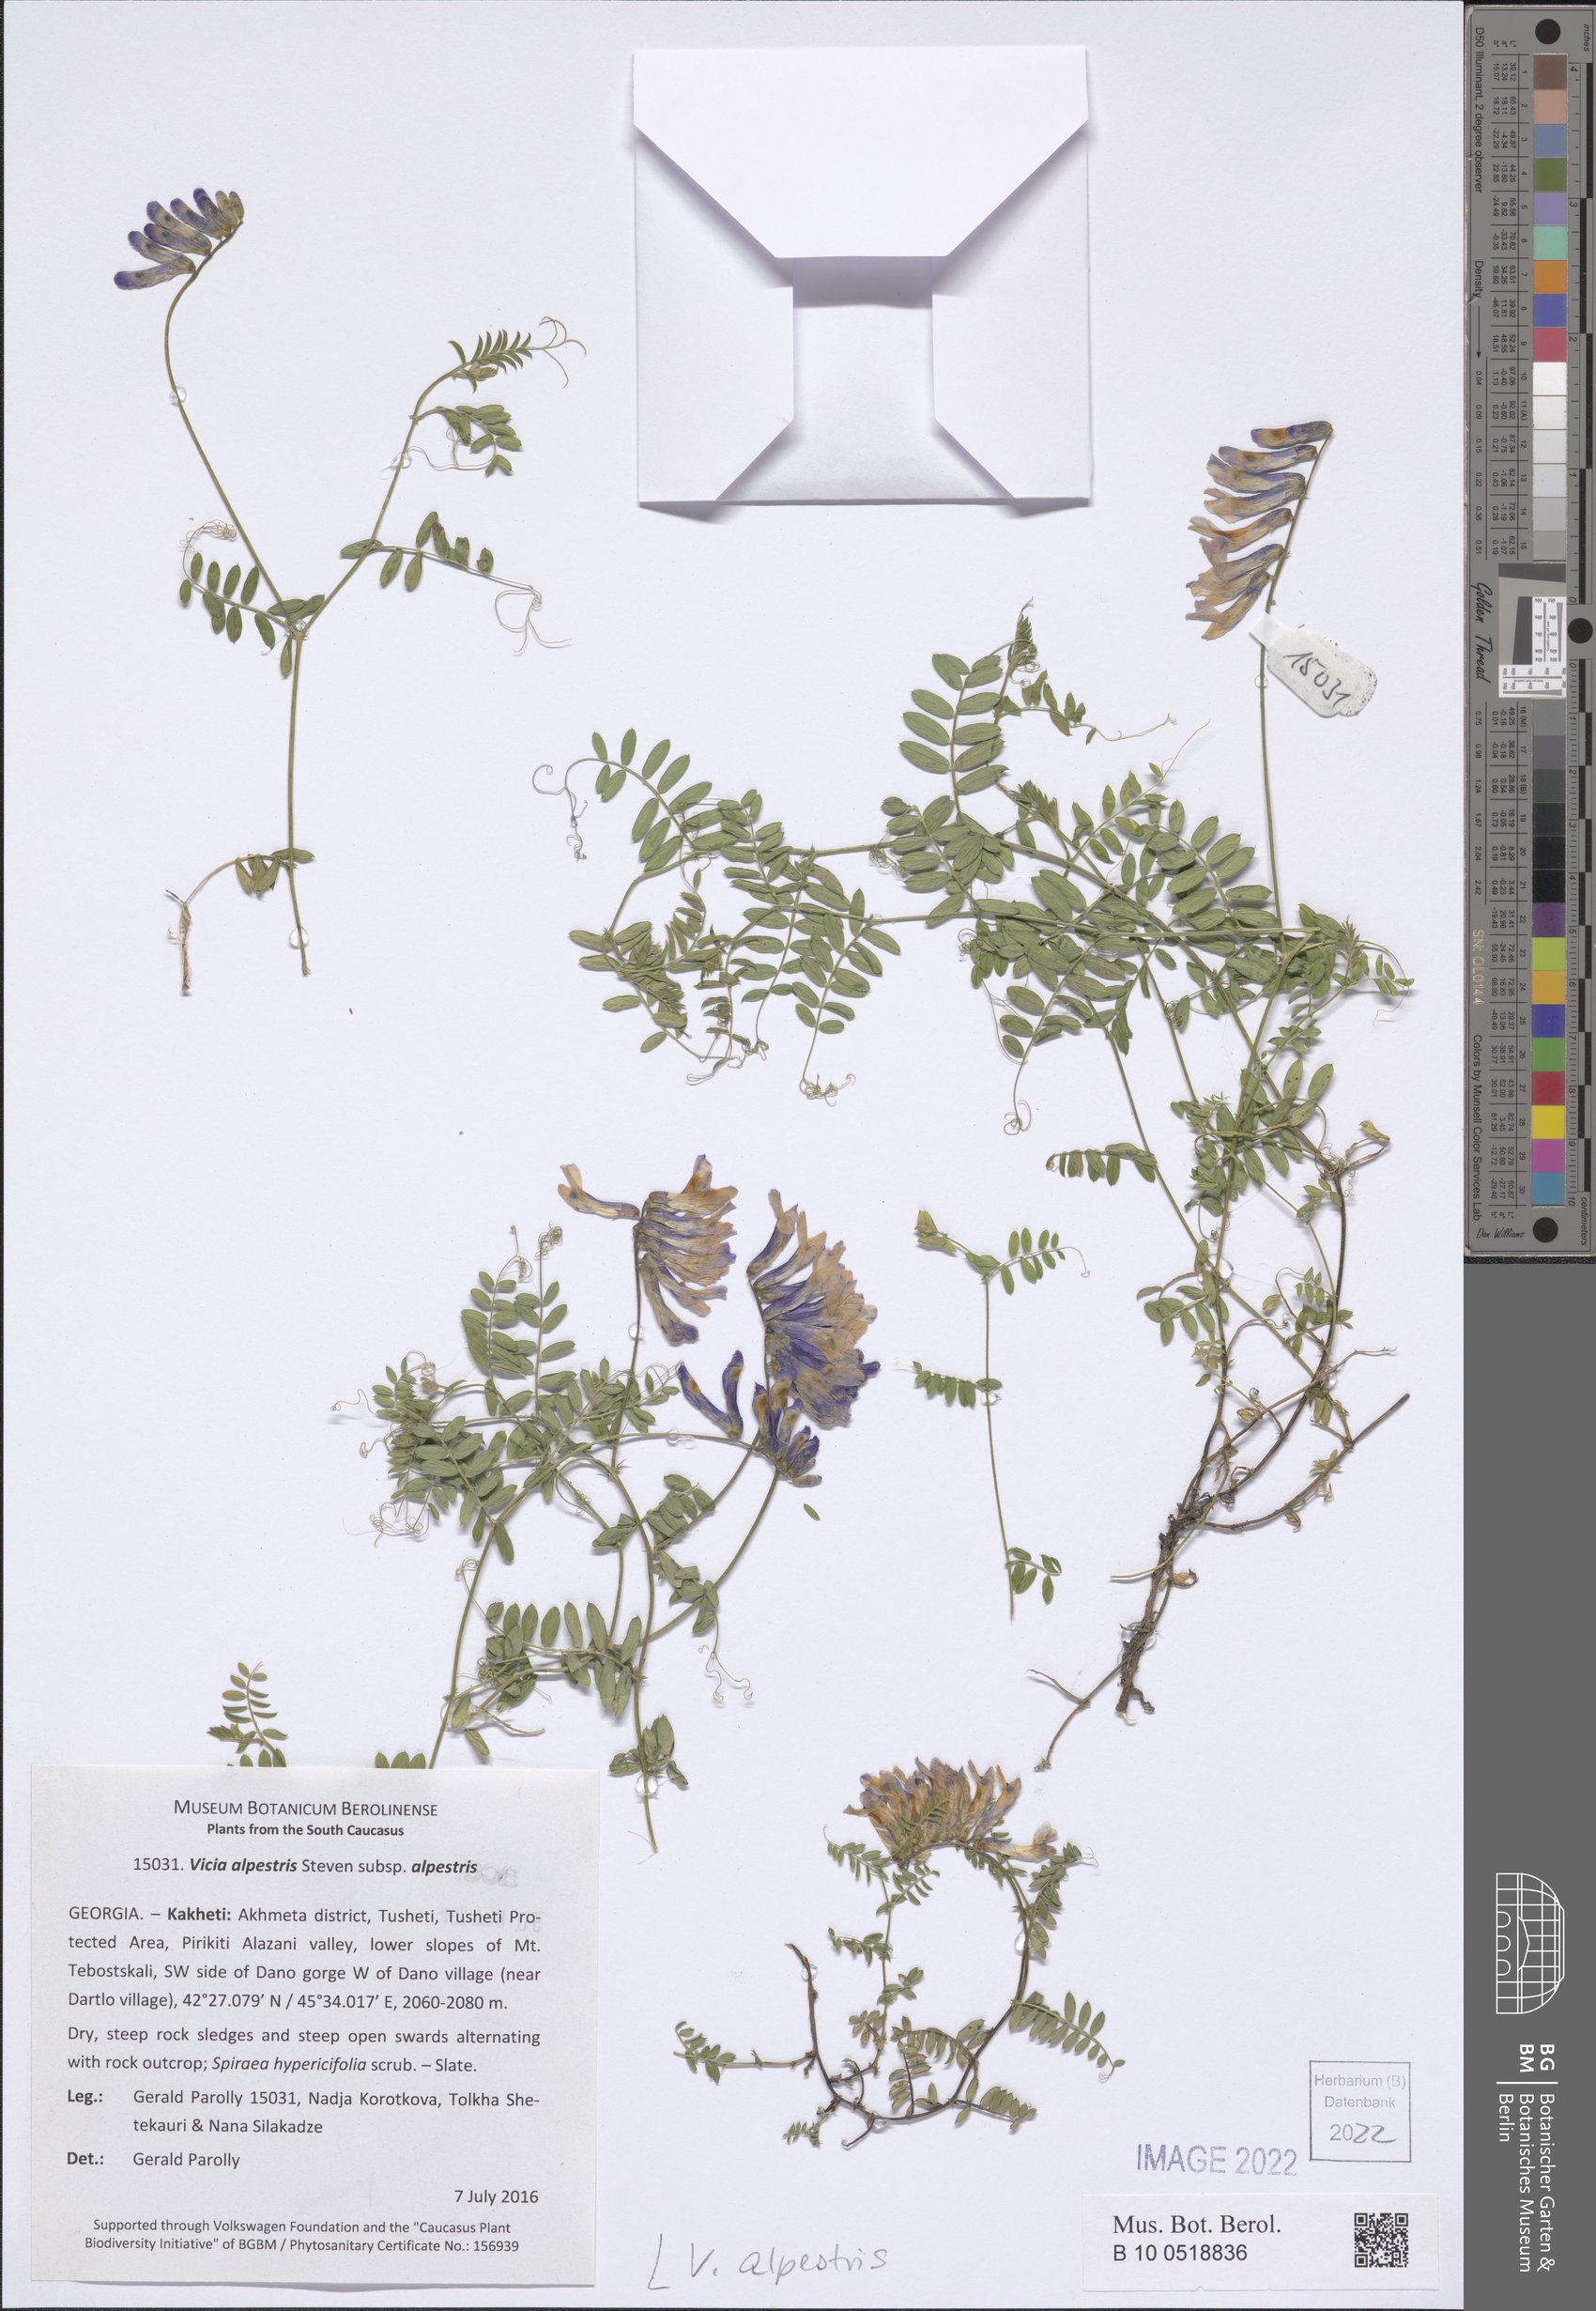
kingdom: Plantae
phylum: Tracheophyta
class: Magnoliopsida
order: Malpighiales
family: Violaceae
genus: Viola
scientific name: Viola tricolor
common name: Pansy
